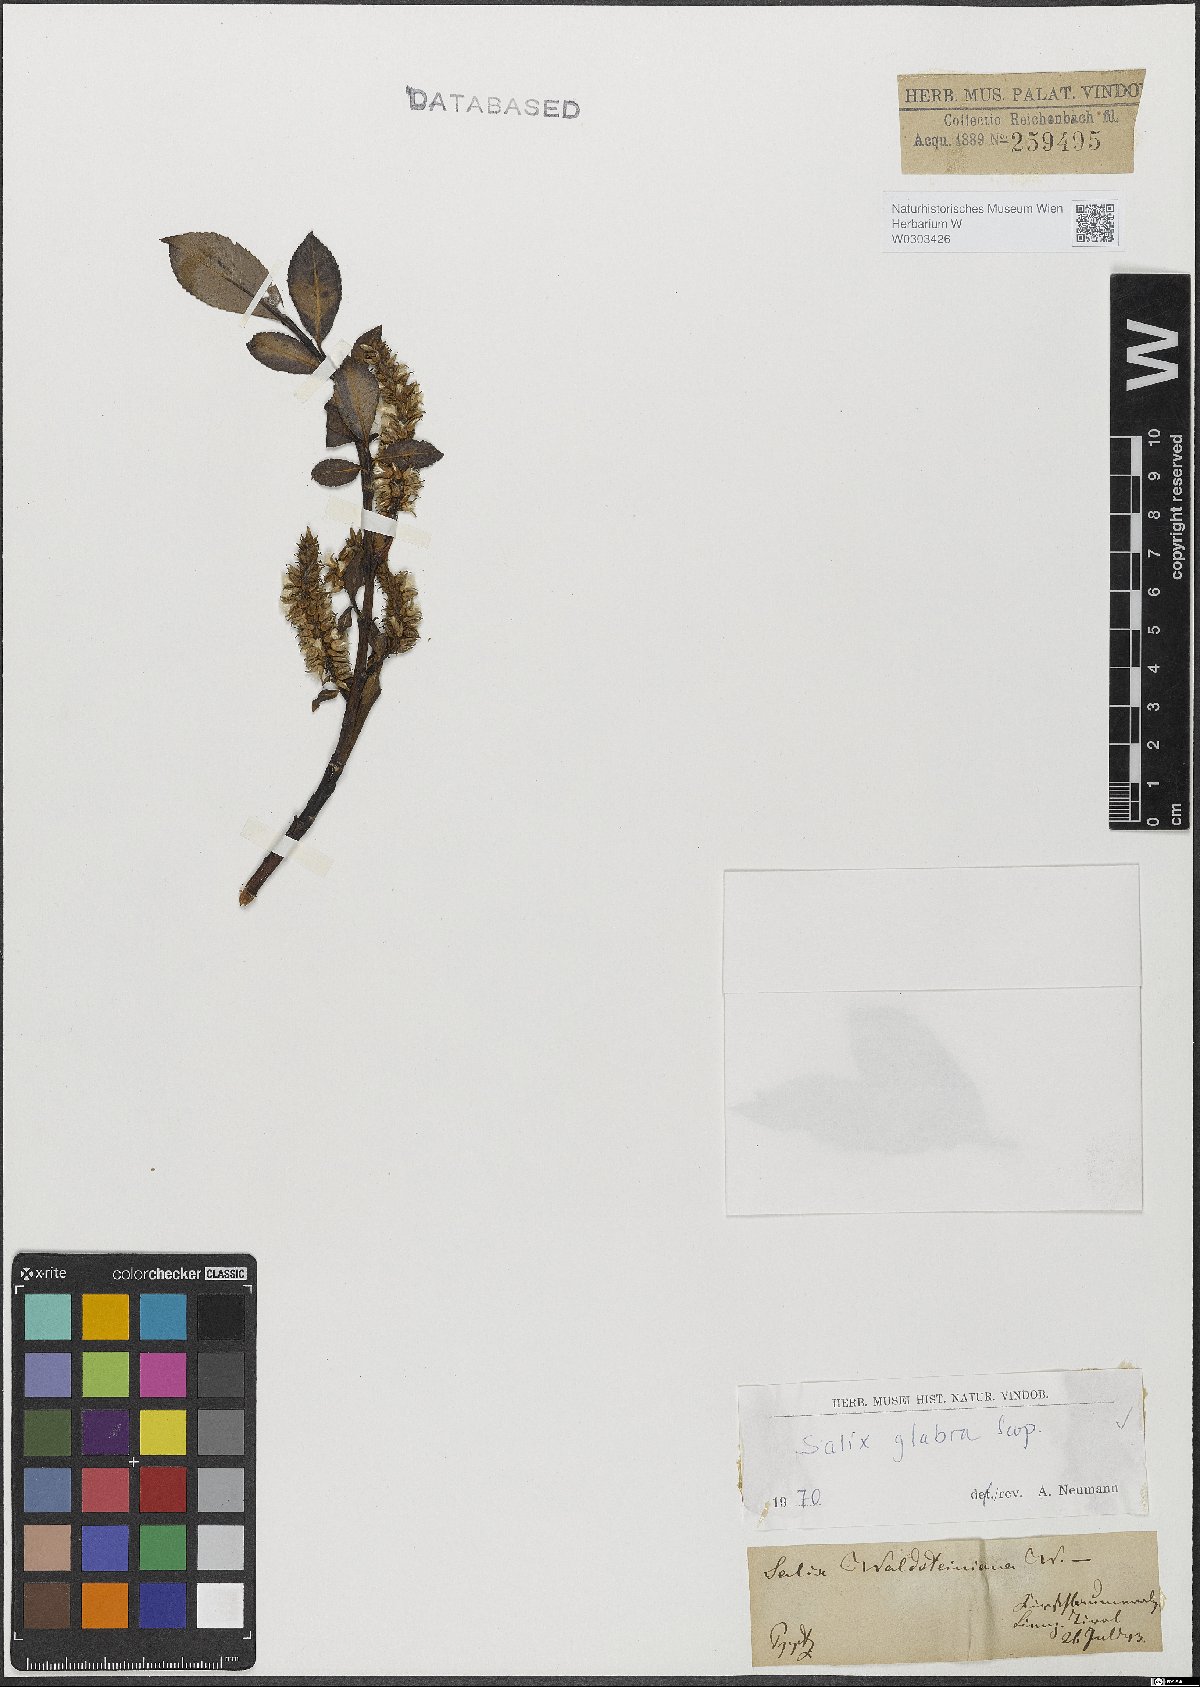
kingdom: Plantae
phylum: Tracheophyta
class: Magnoliopsida
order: Malpighiales
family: Salicaceae
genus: Salix
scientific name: Salix glabra
